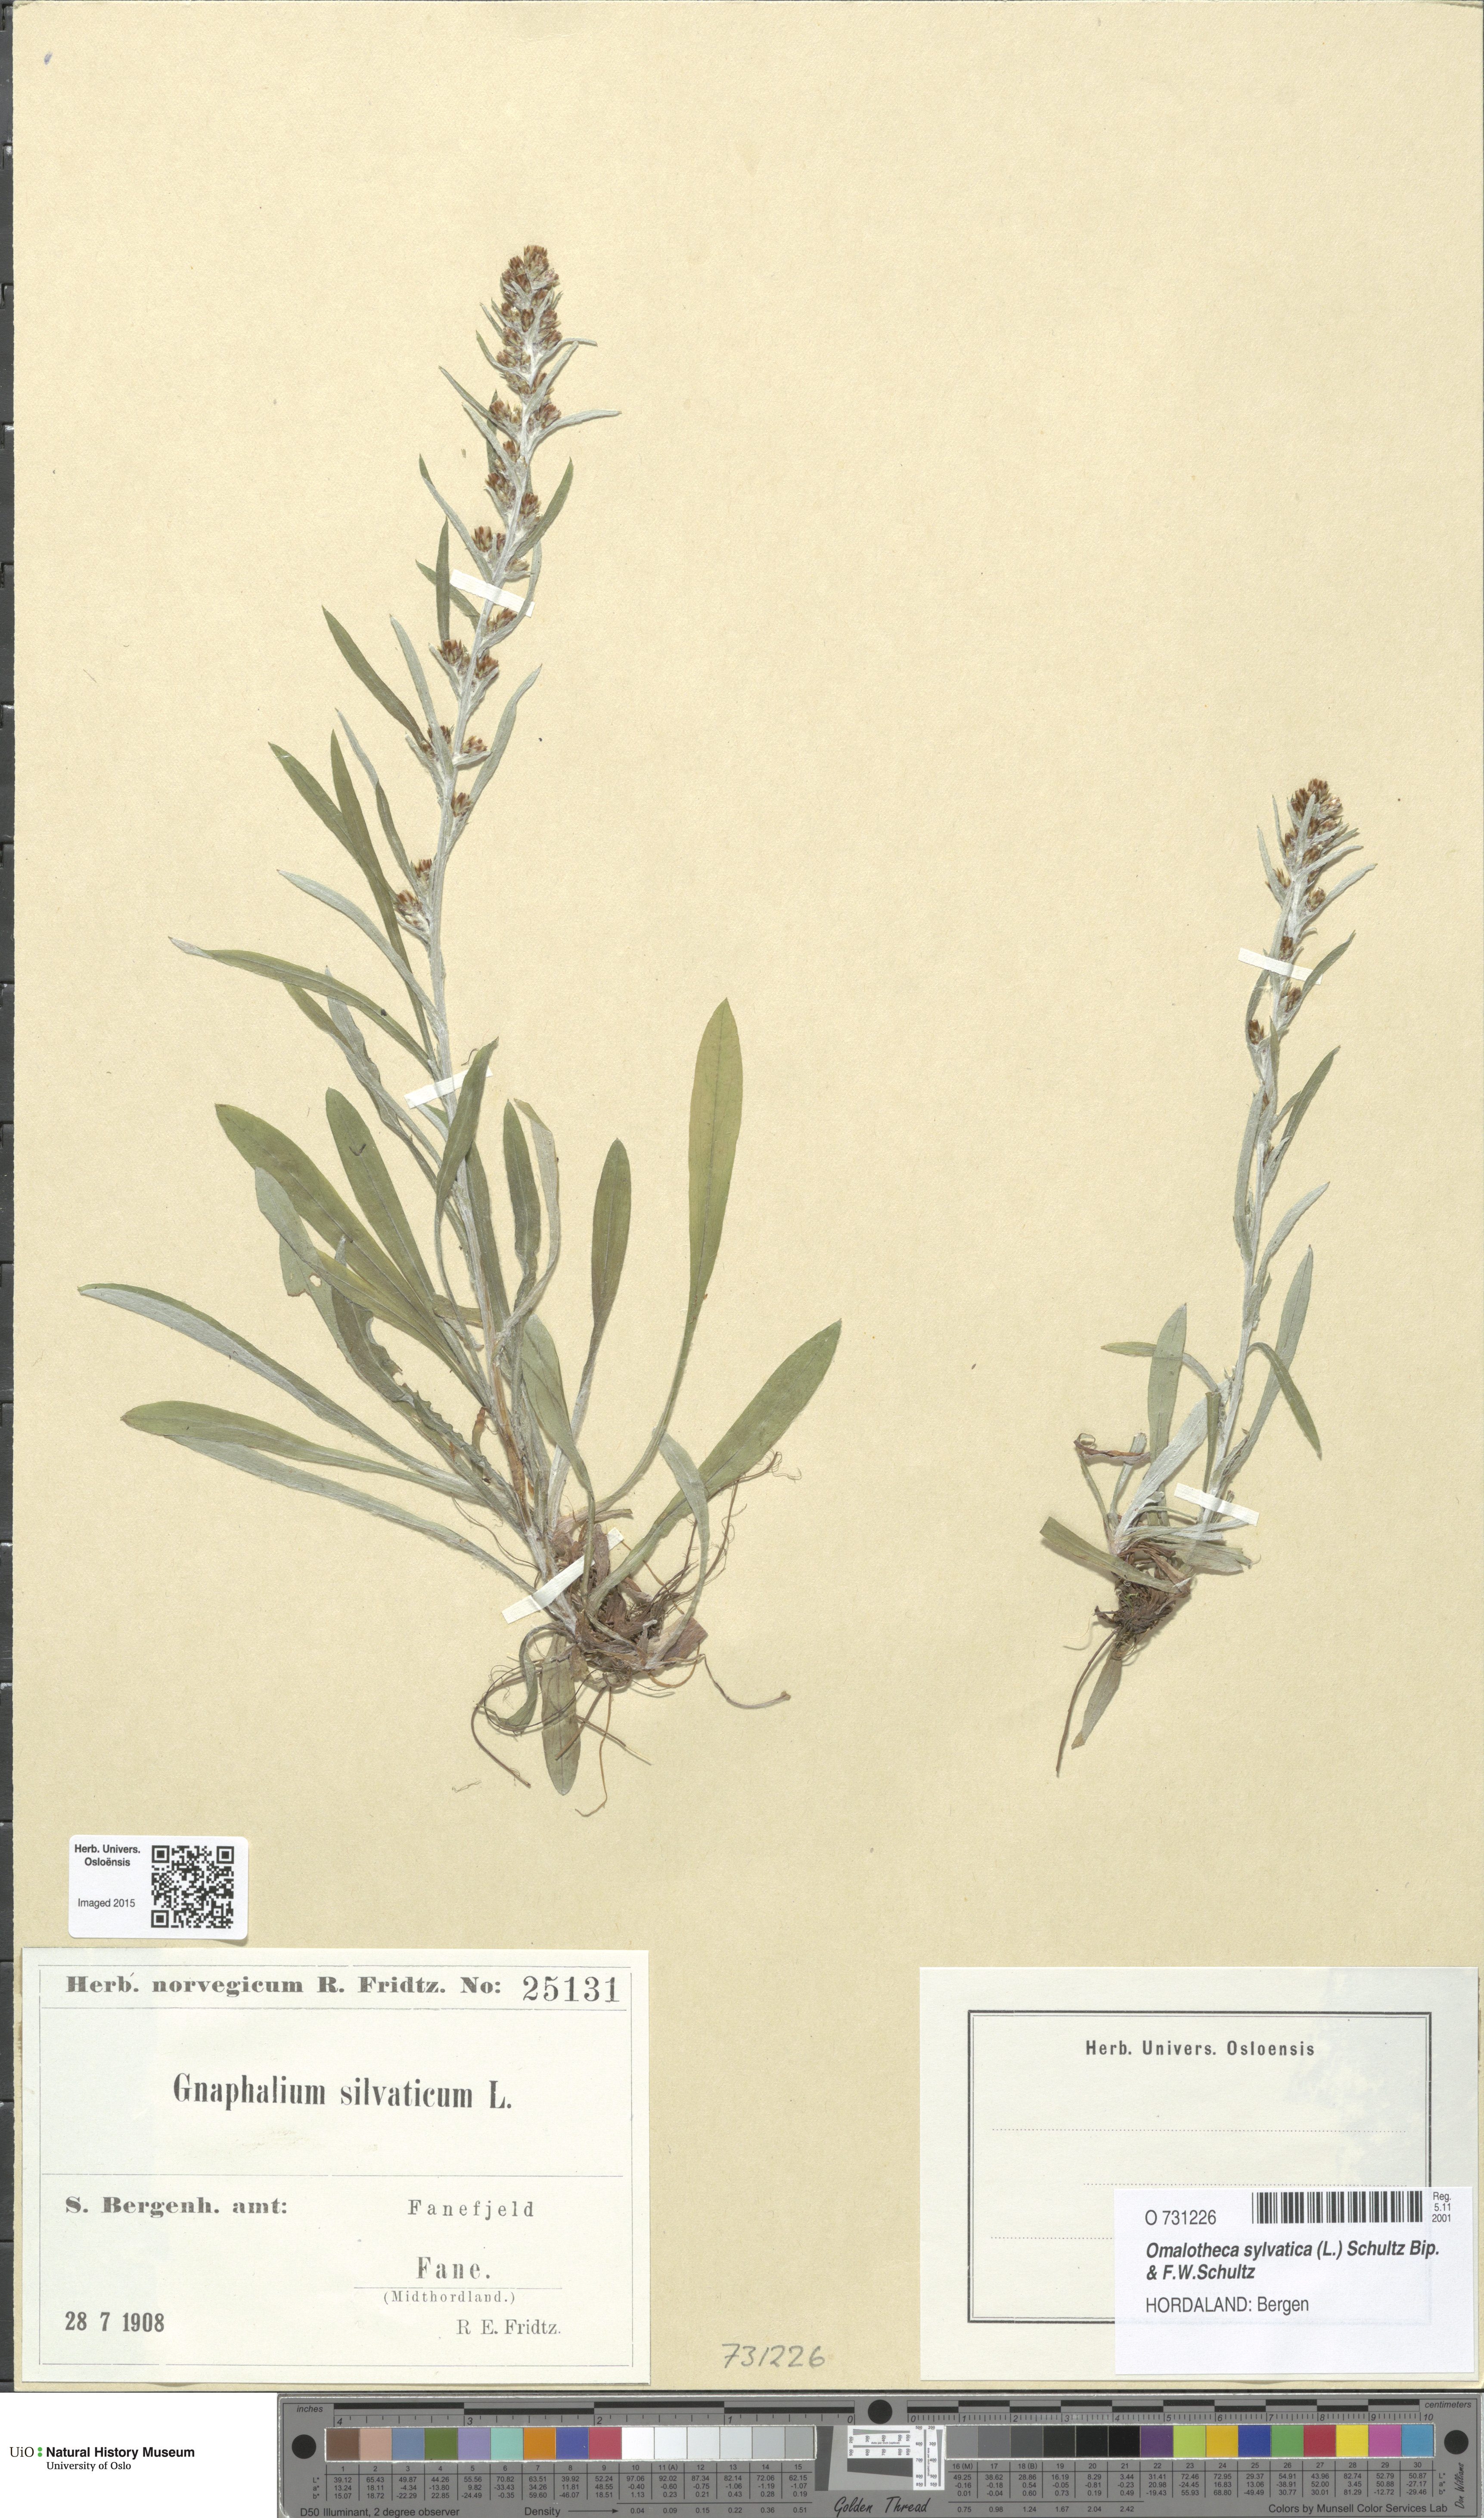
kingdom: Plantae
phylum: Tracheophyta
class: Magnoliopsida
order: Asterales
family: Asteraceae
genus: Omalotheca
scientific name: Omalotheca sylvatica
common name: Heath cudweed
